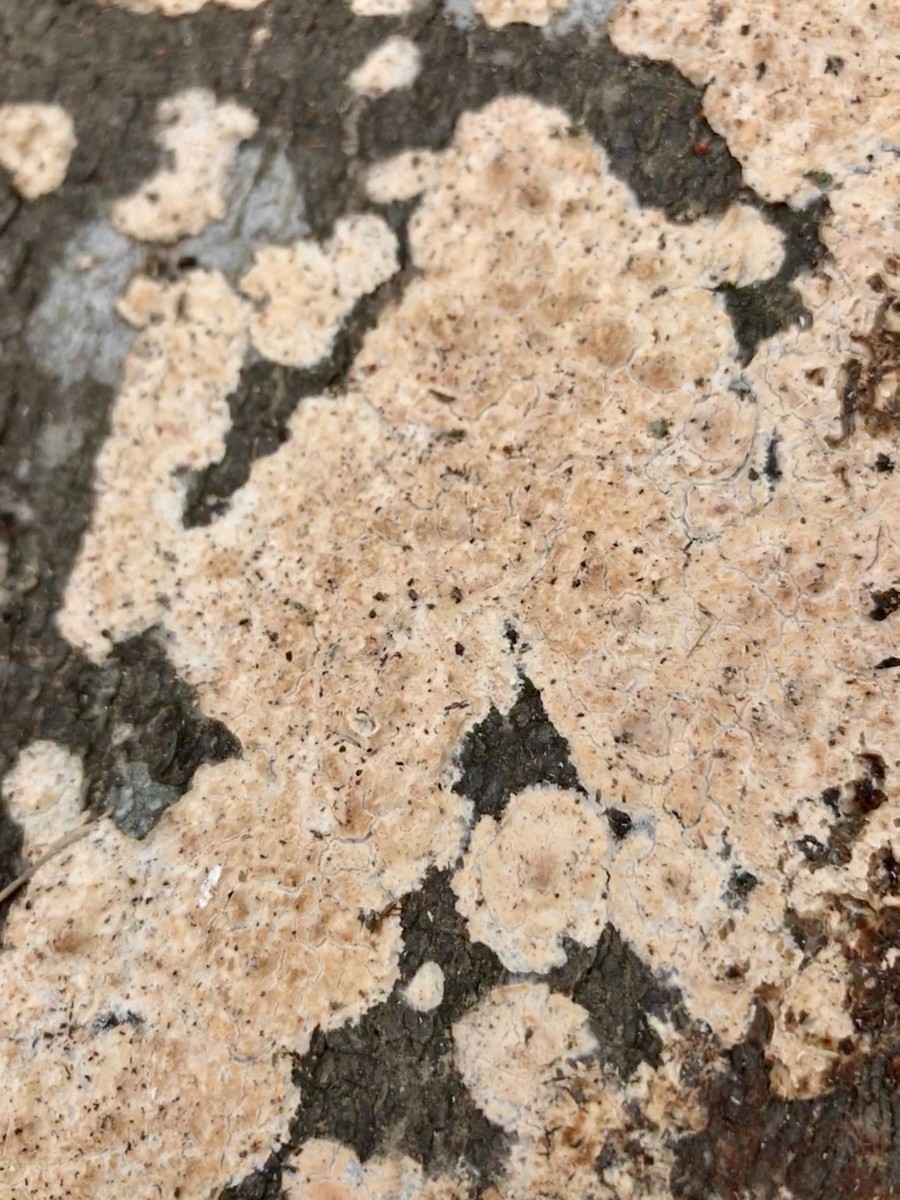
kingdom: Fungi
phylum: Basidiomycota
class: Agaricomycetes
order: Agaricales
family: Physalacriaceae
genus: Cylindrobasidium
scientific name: Cylindrobasidium evolvens
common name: sprækkehinde
